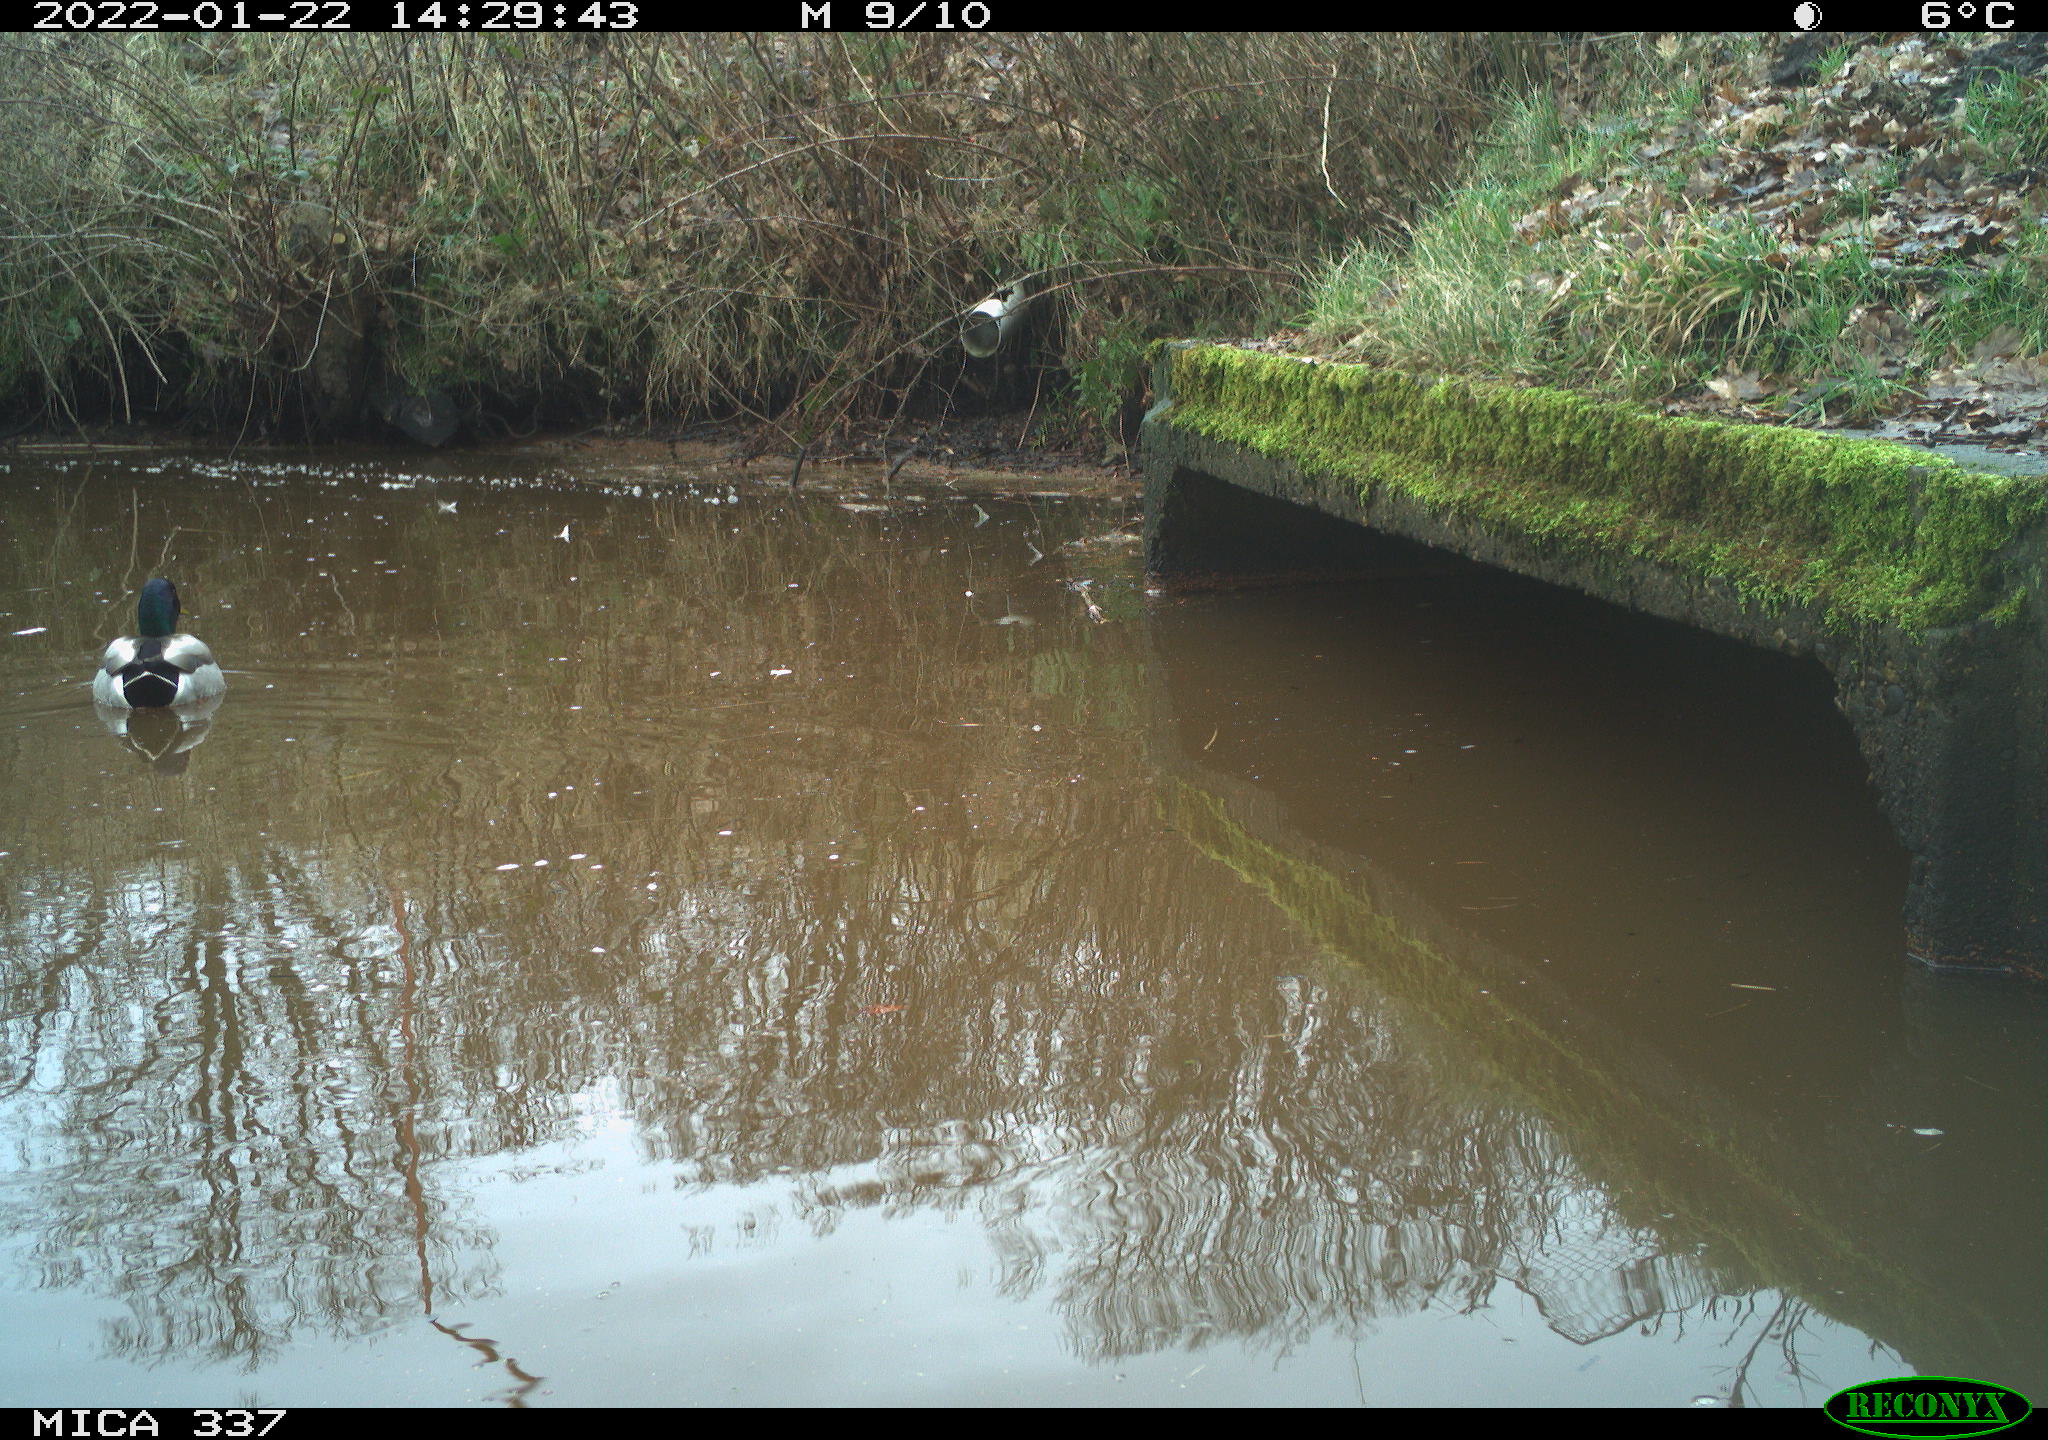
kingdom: Animalia
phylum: Chordata
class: Aves
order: Anseriformes
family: Anatidae
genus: Anas
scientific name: Anas platyrhynchos
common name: Mallard
